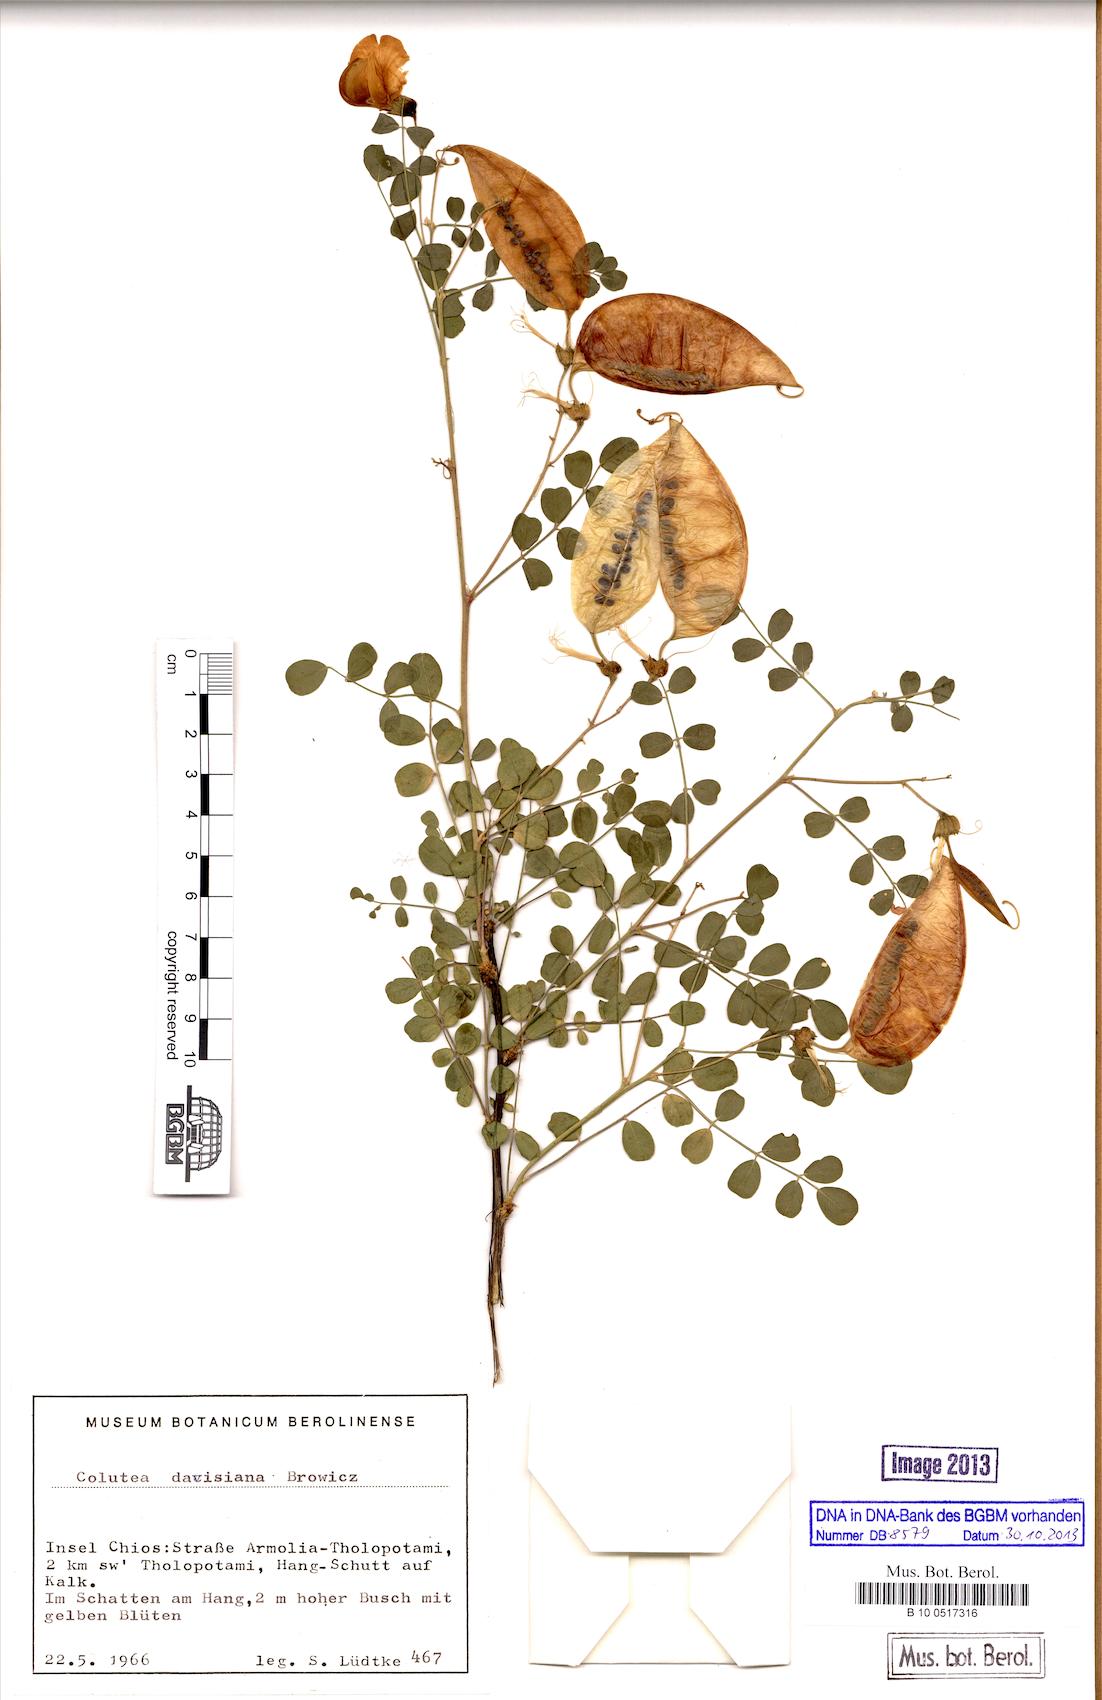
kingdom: Plantae
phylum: Tracheophyta
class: Magnoliopsida
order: Fabales
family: Fabaceae
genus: Colutea
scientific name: Colutea melanocalyx
